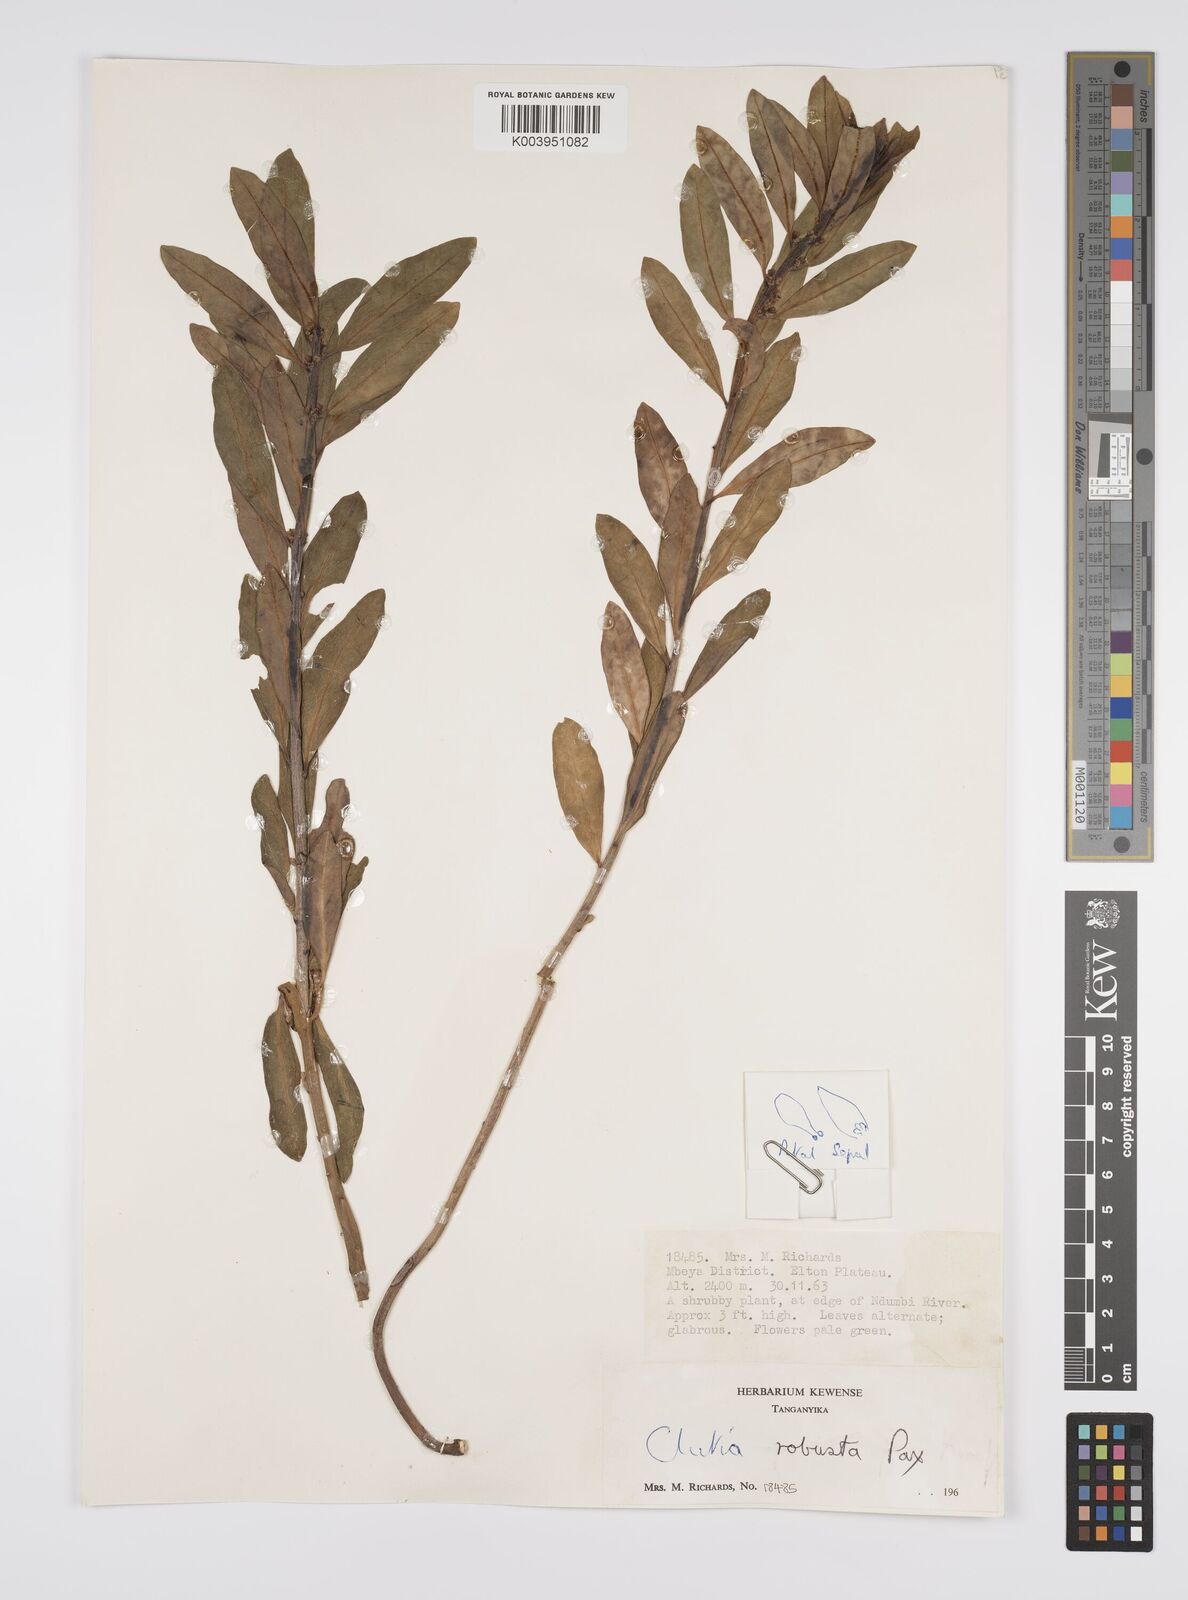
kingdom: Plantae
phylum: Tracheophyta
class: Magnoliopsida
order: Malpighiales
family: Peraceae
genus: Clutia
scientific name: Clutia kilimandscharica
